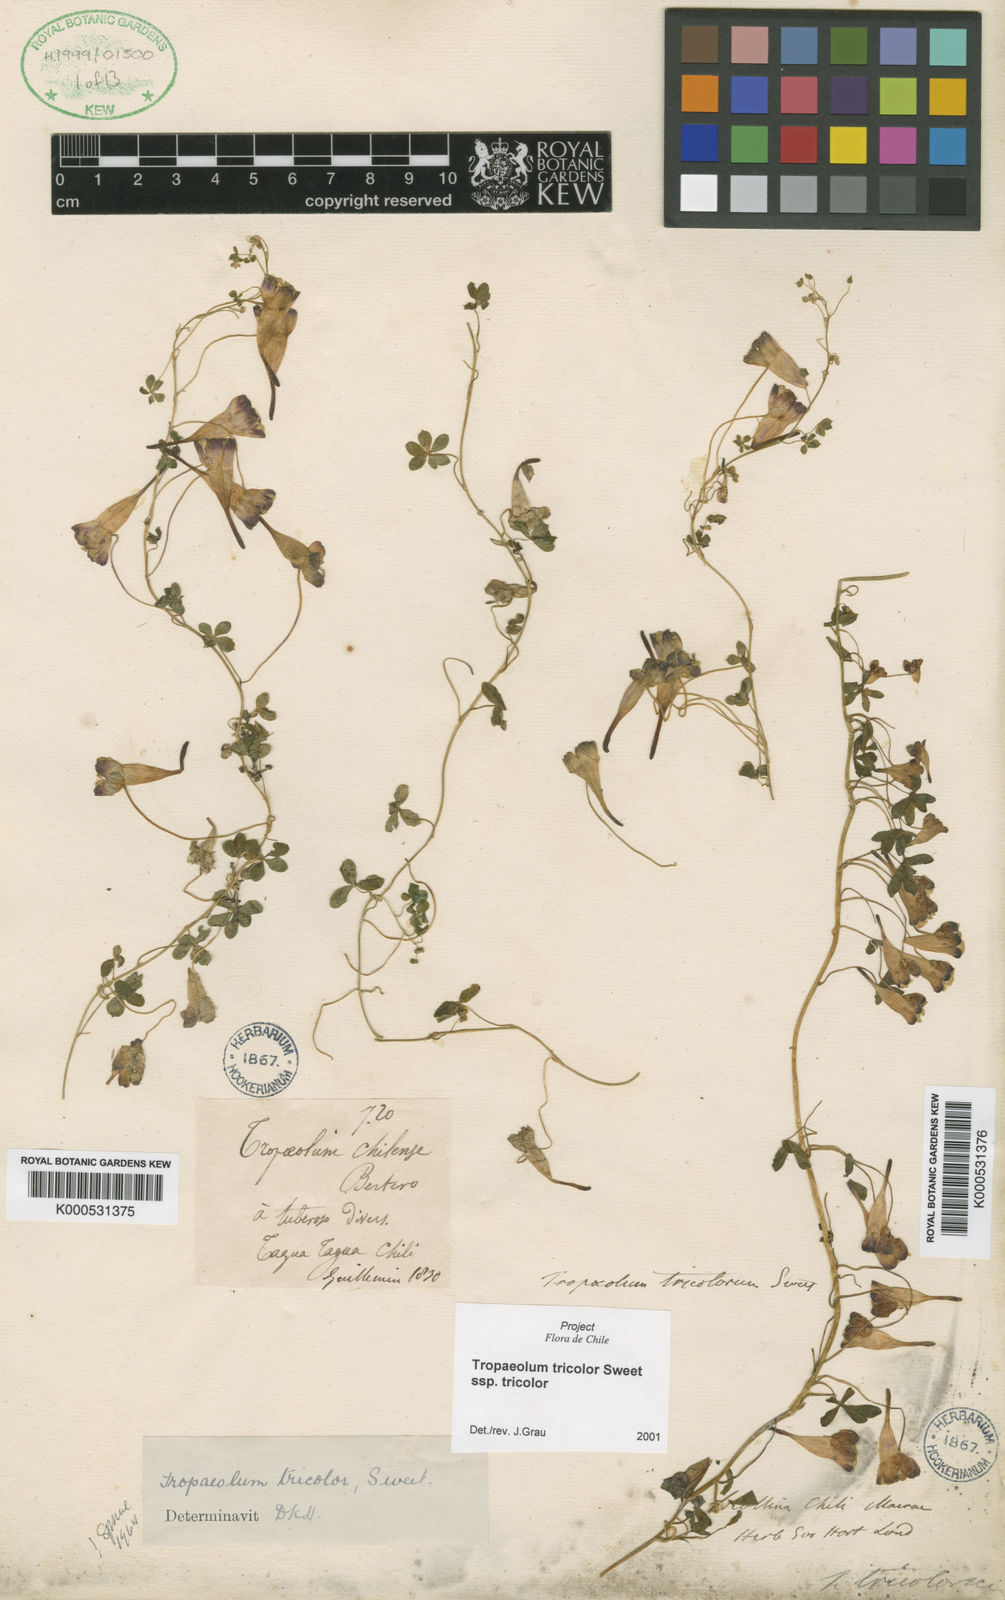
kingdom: Plantae
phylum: Tracheophyta
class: Magnoliopsida
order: Brassicales
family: Tropaeolaceae
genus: Tropaeolum
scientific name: Tropaeolum tricolor
